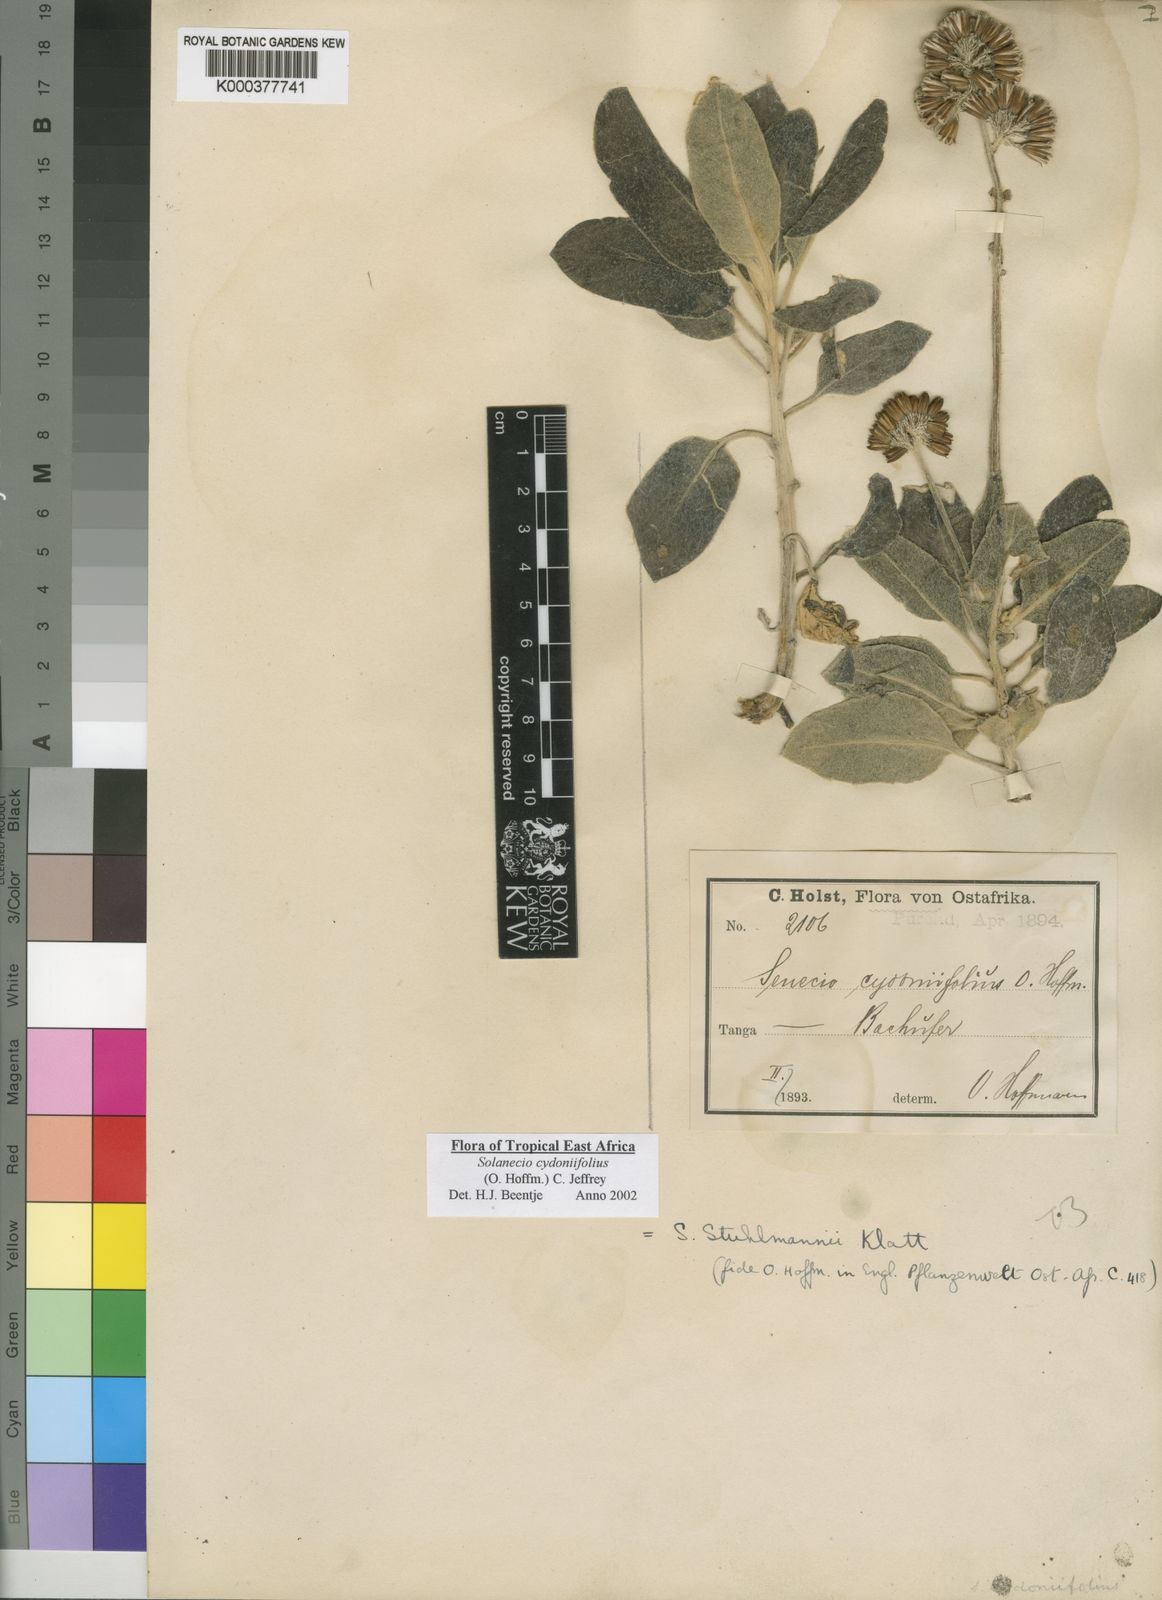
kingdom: Plantae
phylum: Tracheophyta
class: Magnoliopsida
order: Asterales
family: Asteraceae
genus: Solanecio
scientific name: Solanecio cydoniifolius
